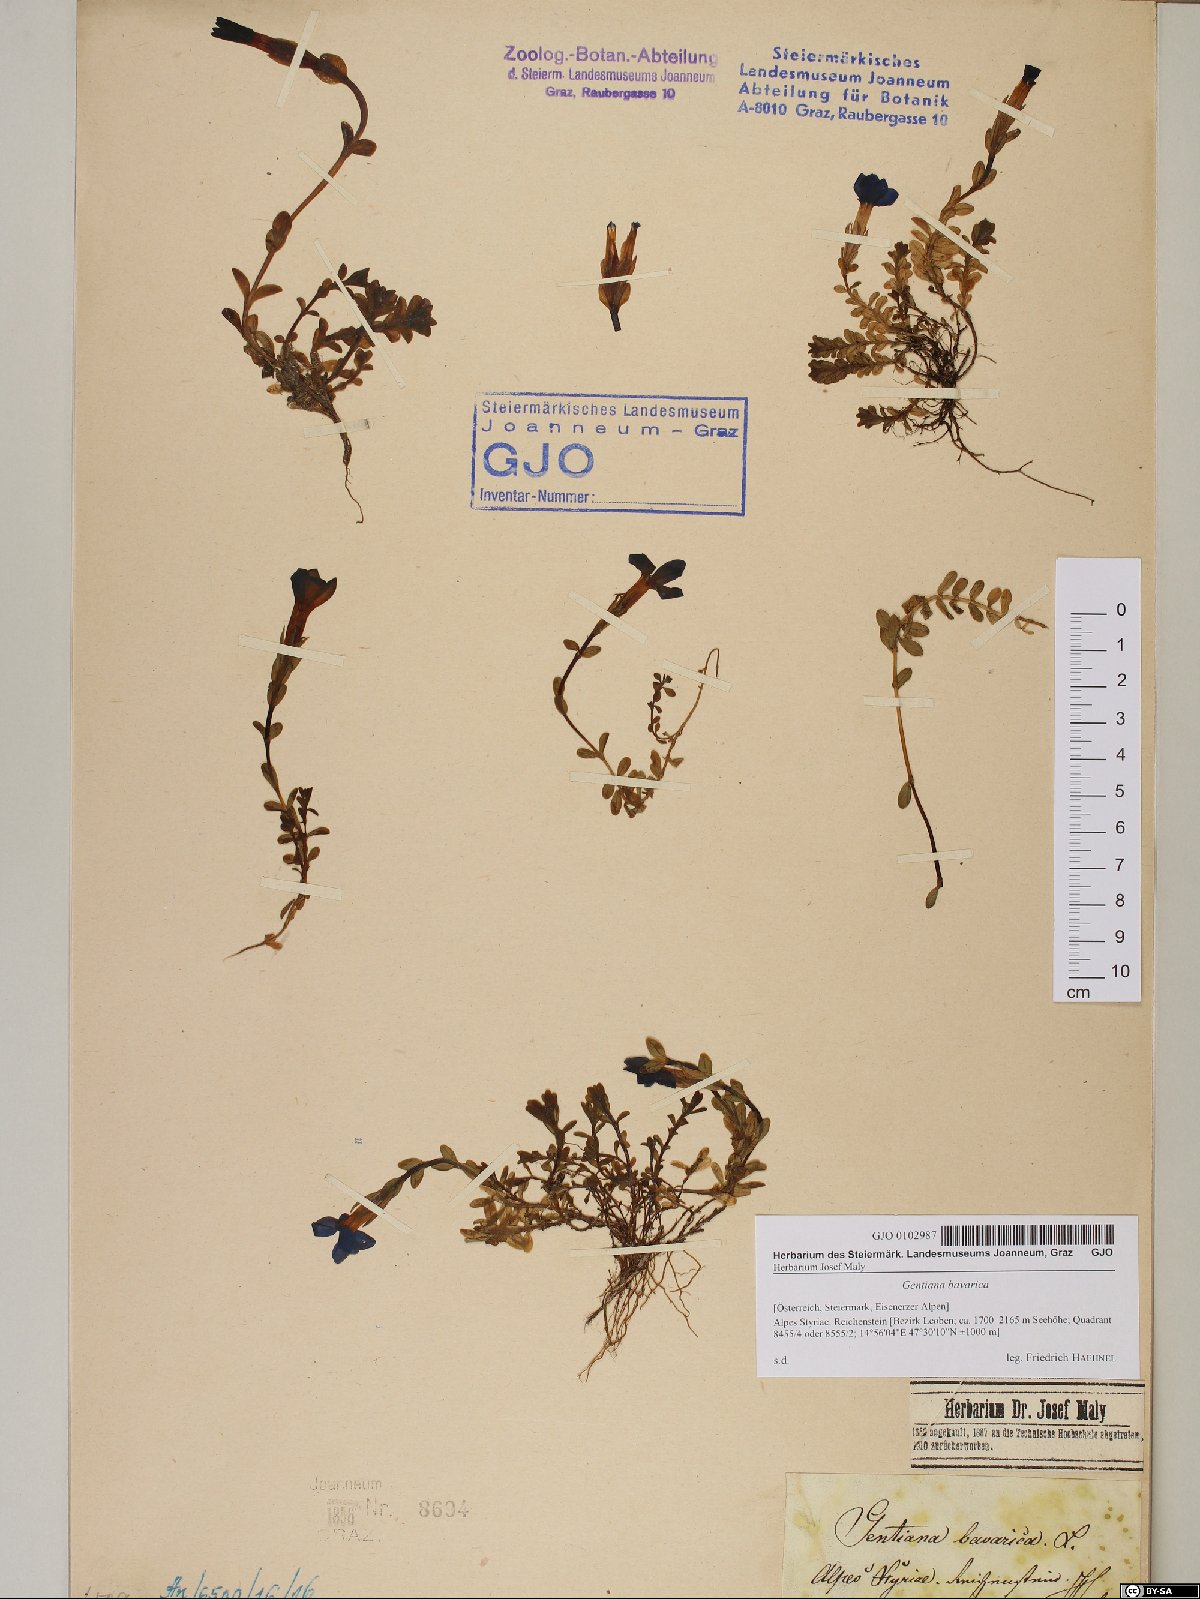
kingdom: Plantae
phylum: Tracheophyta
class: Magnoliopsida
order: Gentianales
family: Gentianaceae
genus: Gentiana
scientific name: Gentiana bavarica
